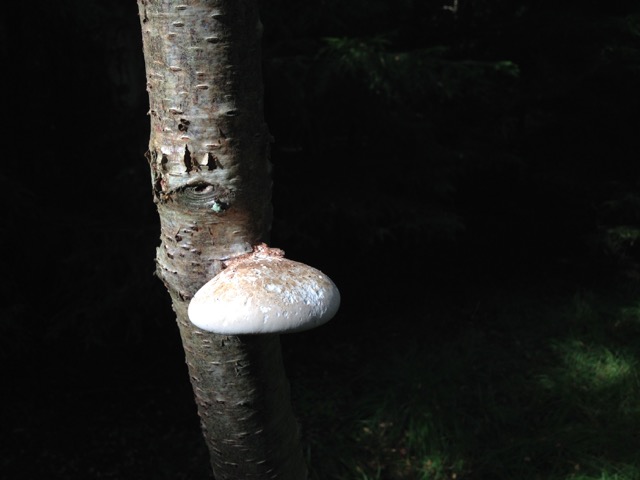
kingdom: Fungi
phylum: Basidiomycota
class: Agaricomycetes
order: Polyporales
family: Fomitopsidaceae
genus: Fomitopsis
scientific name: Fomitopsis betulina
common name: birkeporesvamp
